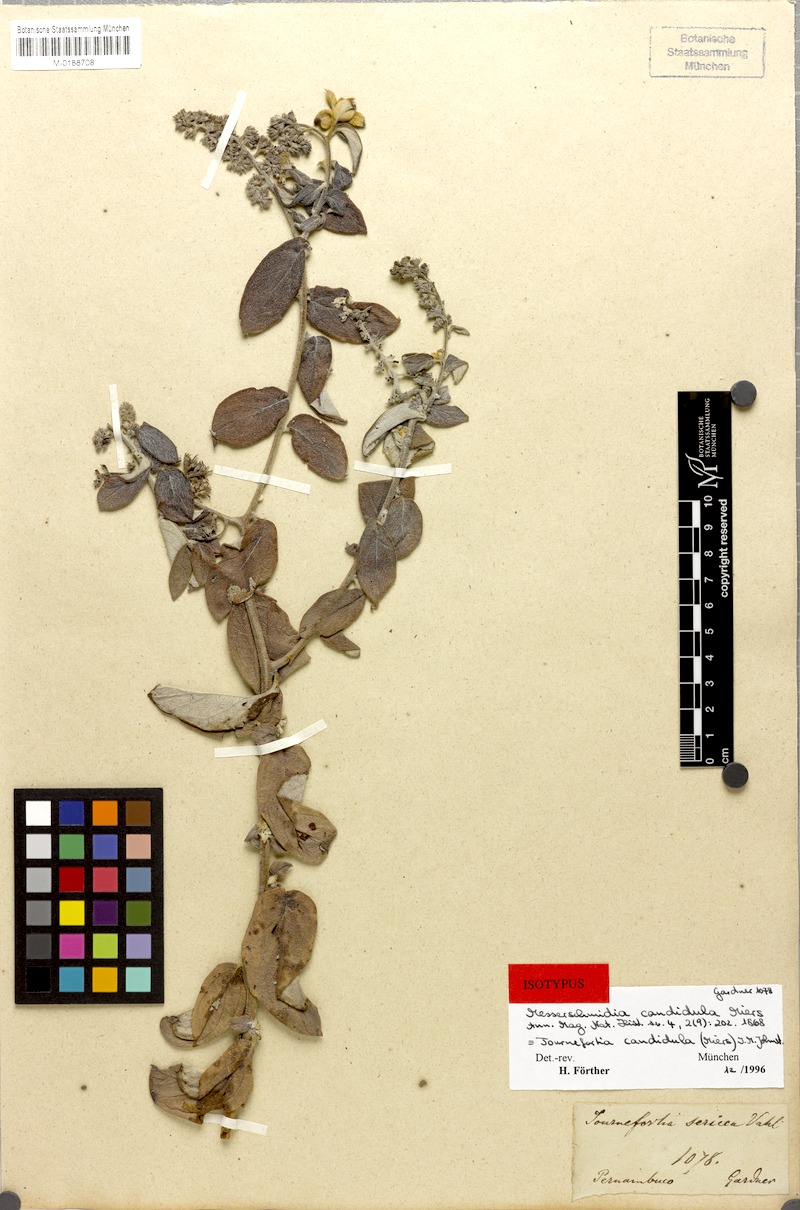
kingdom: Plantae
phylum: Tracheophyta
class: Magnoliopsida
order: Boraginales
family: Heliotropiaceae
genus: Myriopus
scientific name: Myriopus candidulus
